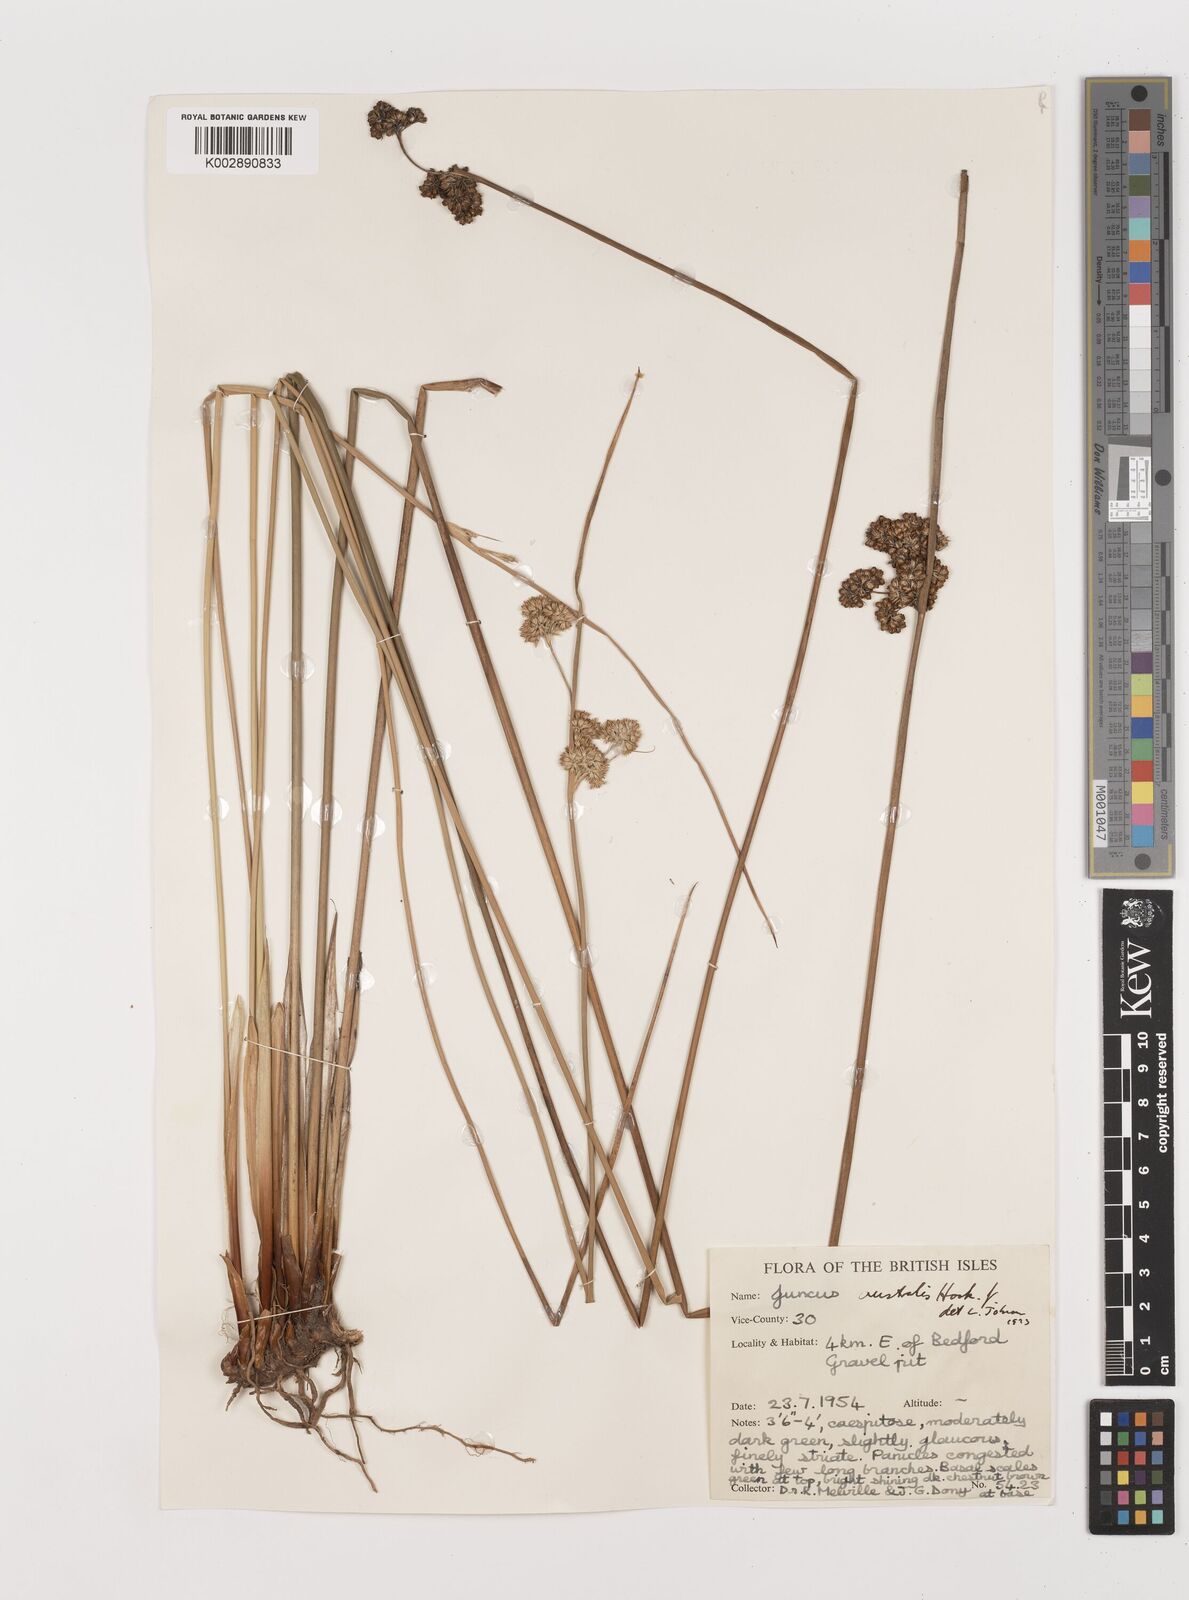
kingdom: Plantae
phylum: Tracheophyta
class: Liliopsida
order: Poales
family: Juncaceae
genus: Juncus
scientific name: Juncus australis
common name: Austral rush
